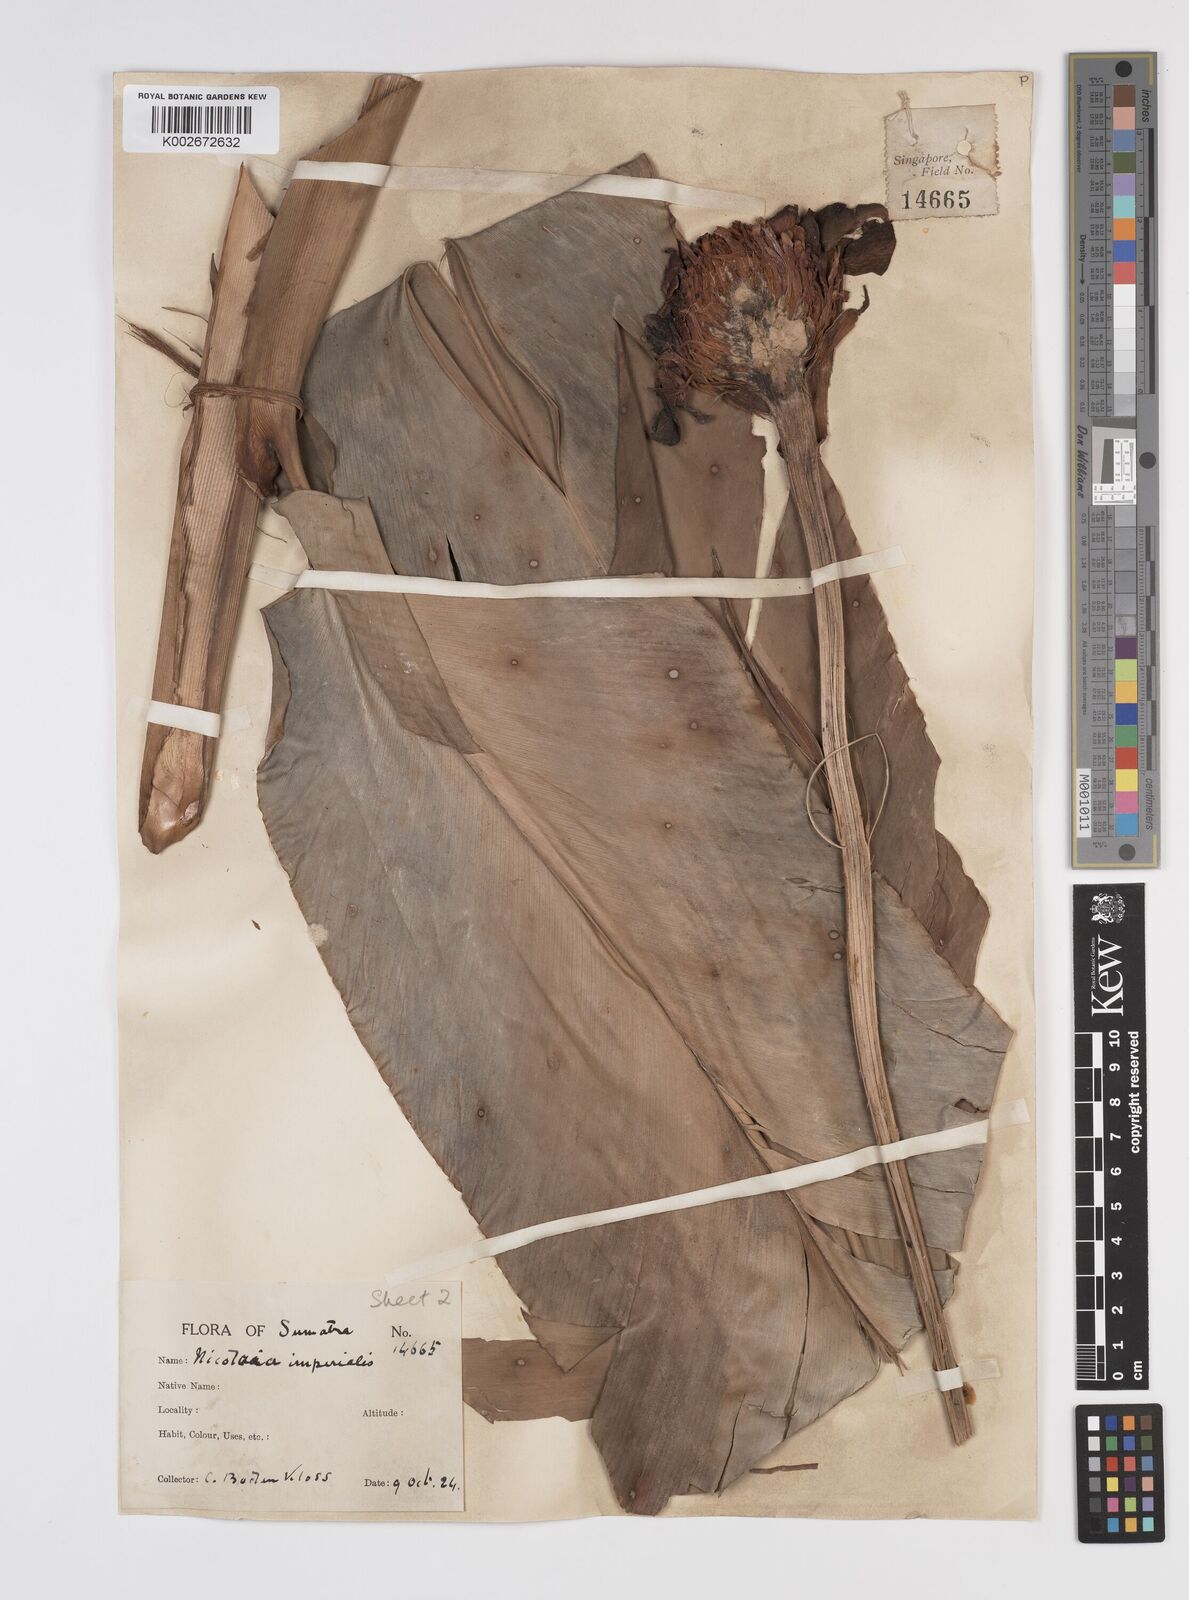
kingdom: Plantae
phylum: Tracheophyta
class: Liliopsida
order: Zingiberales
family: Zingiberaceae
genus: Etlingera
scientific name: Etlingera elatior
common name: Philippine waxflower
